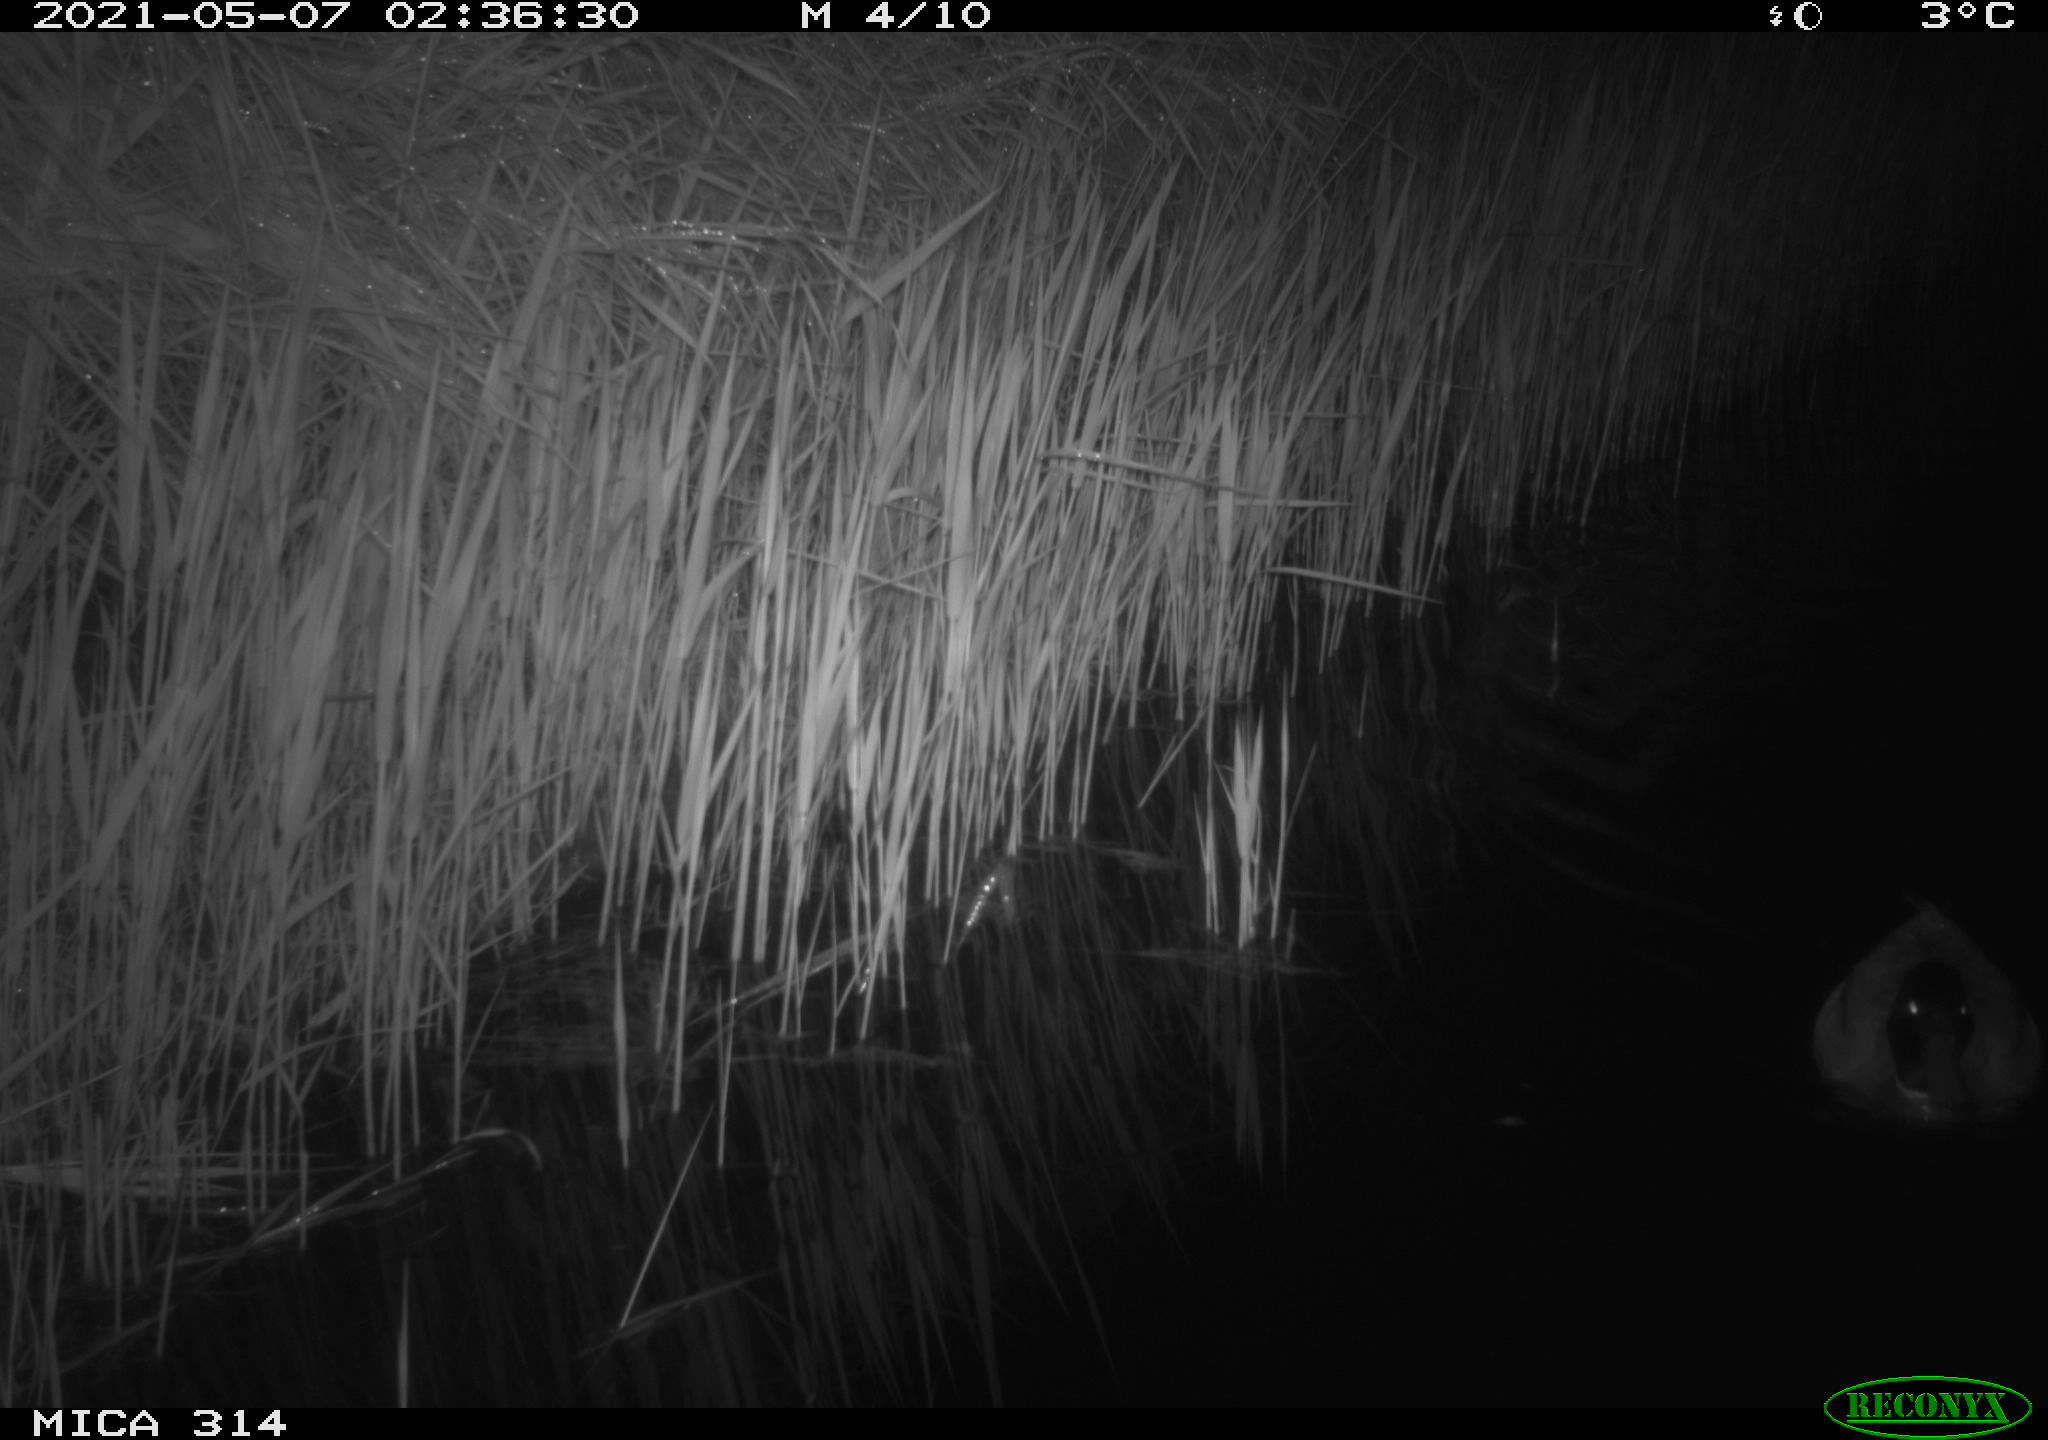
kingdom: Animalia
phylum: Chordata
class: Aves
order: Anseriformes
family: Anatidae
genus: Anas
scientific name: Anas platyrhynchos
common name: Mallard
